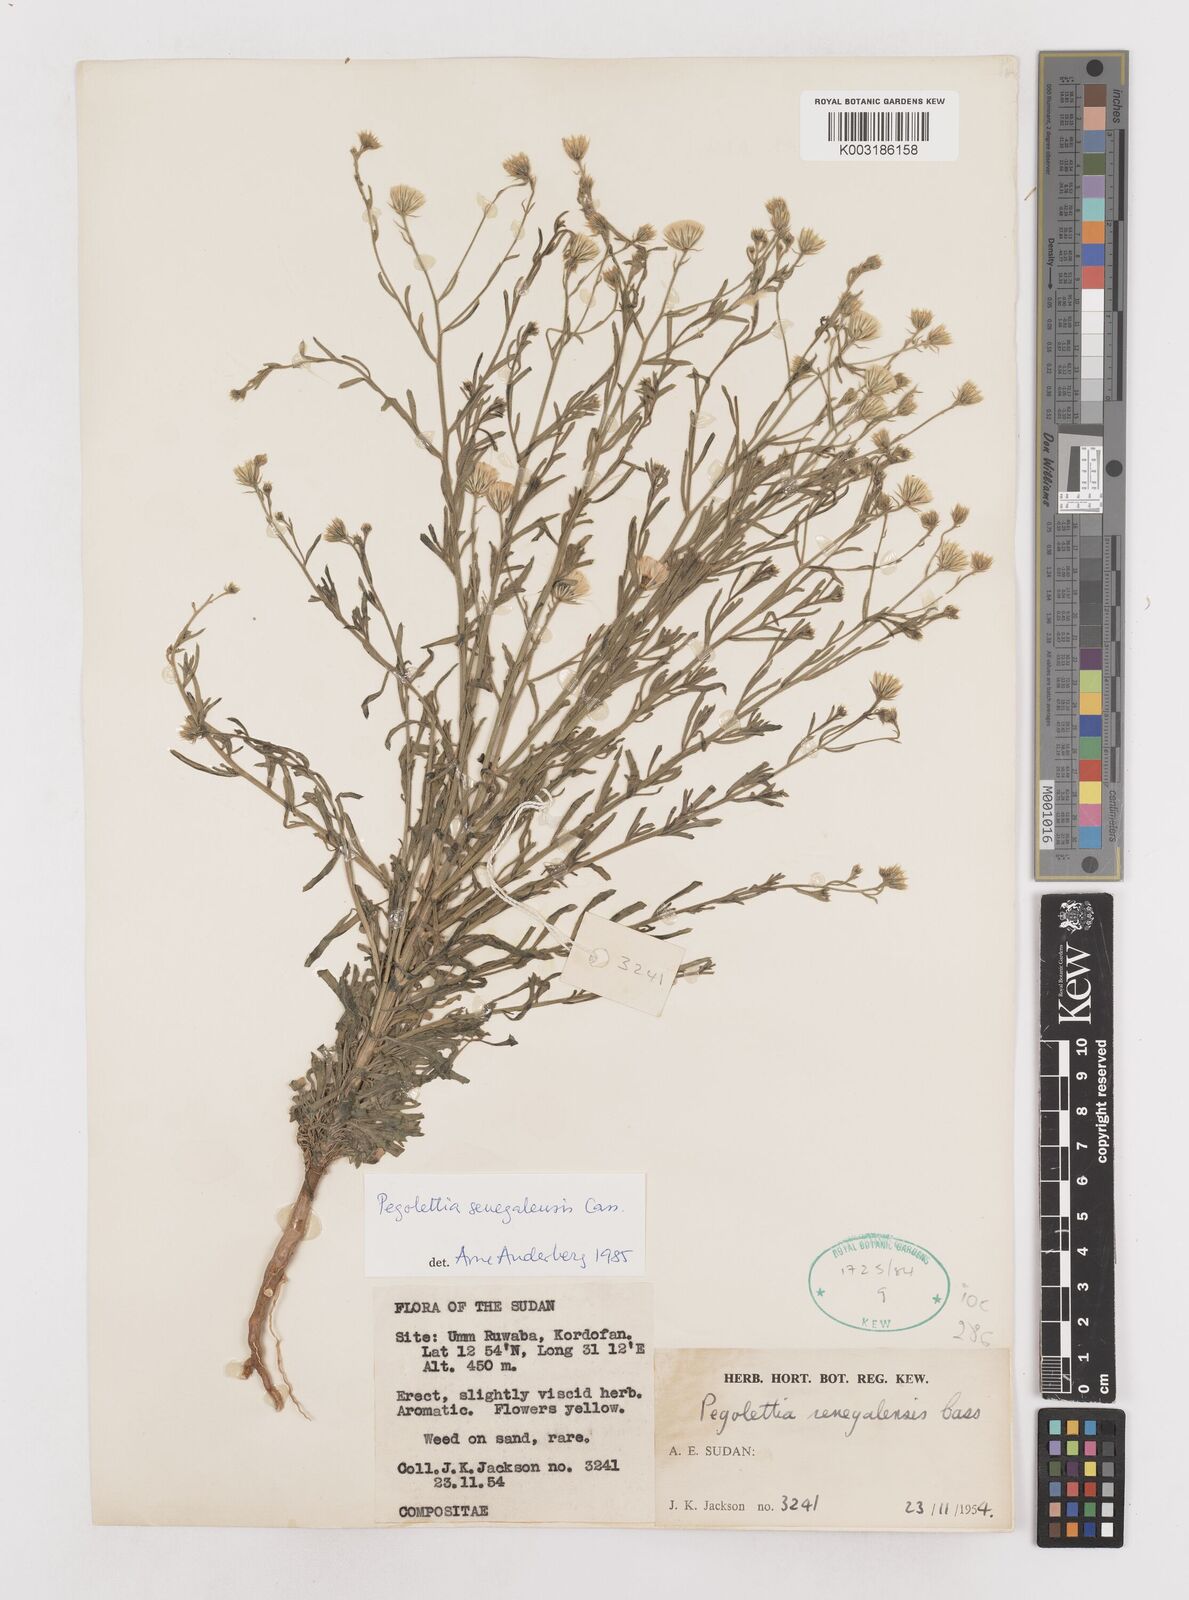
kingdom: Plantae
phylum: Tracheophyta
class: Magnoliopsida
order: Asterales
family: Asteraceae
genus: Pegolettia
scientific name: Pegolettia senegalensis
